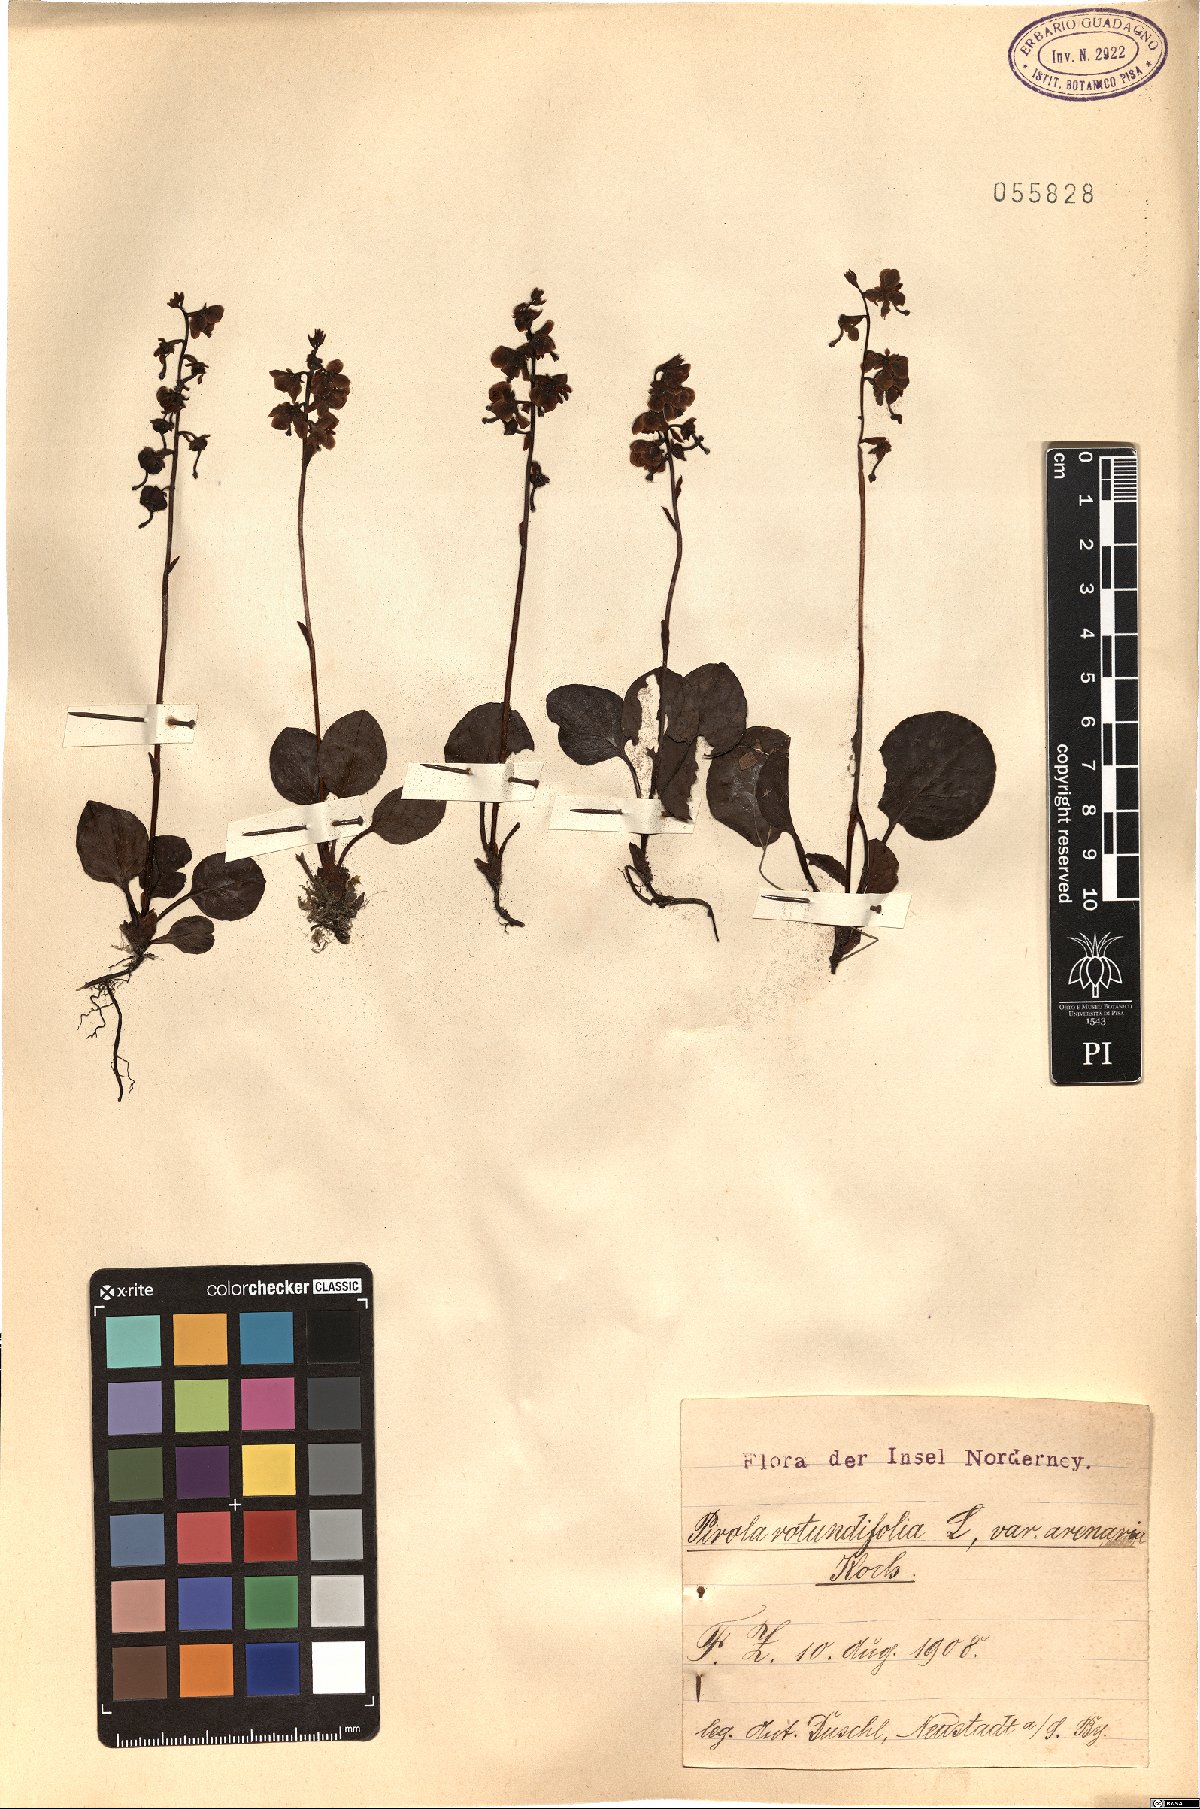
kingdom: Plantae
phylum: Tracheophyta
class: Magnoliopsida
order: Ericales
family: Ericaceae
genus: Pyrola
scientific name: Pyrola rotundifolia
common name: Round-leaved wintergreen
